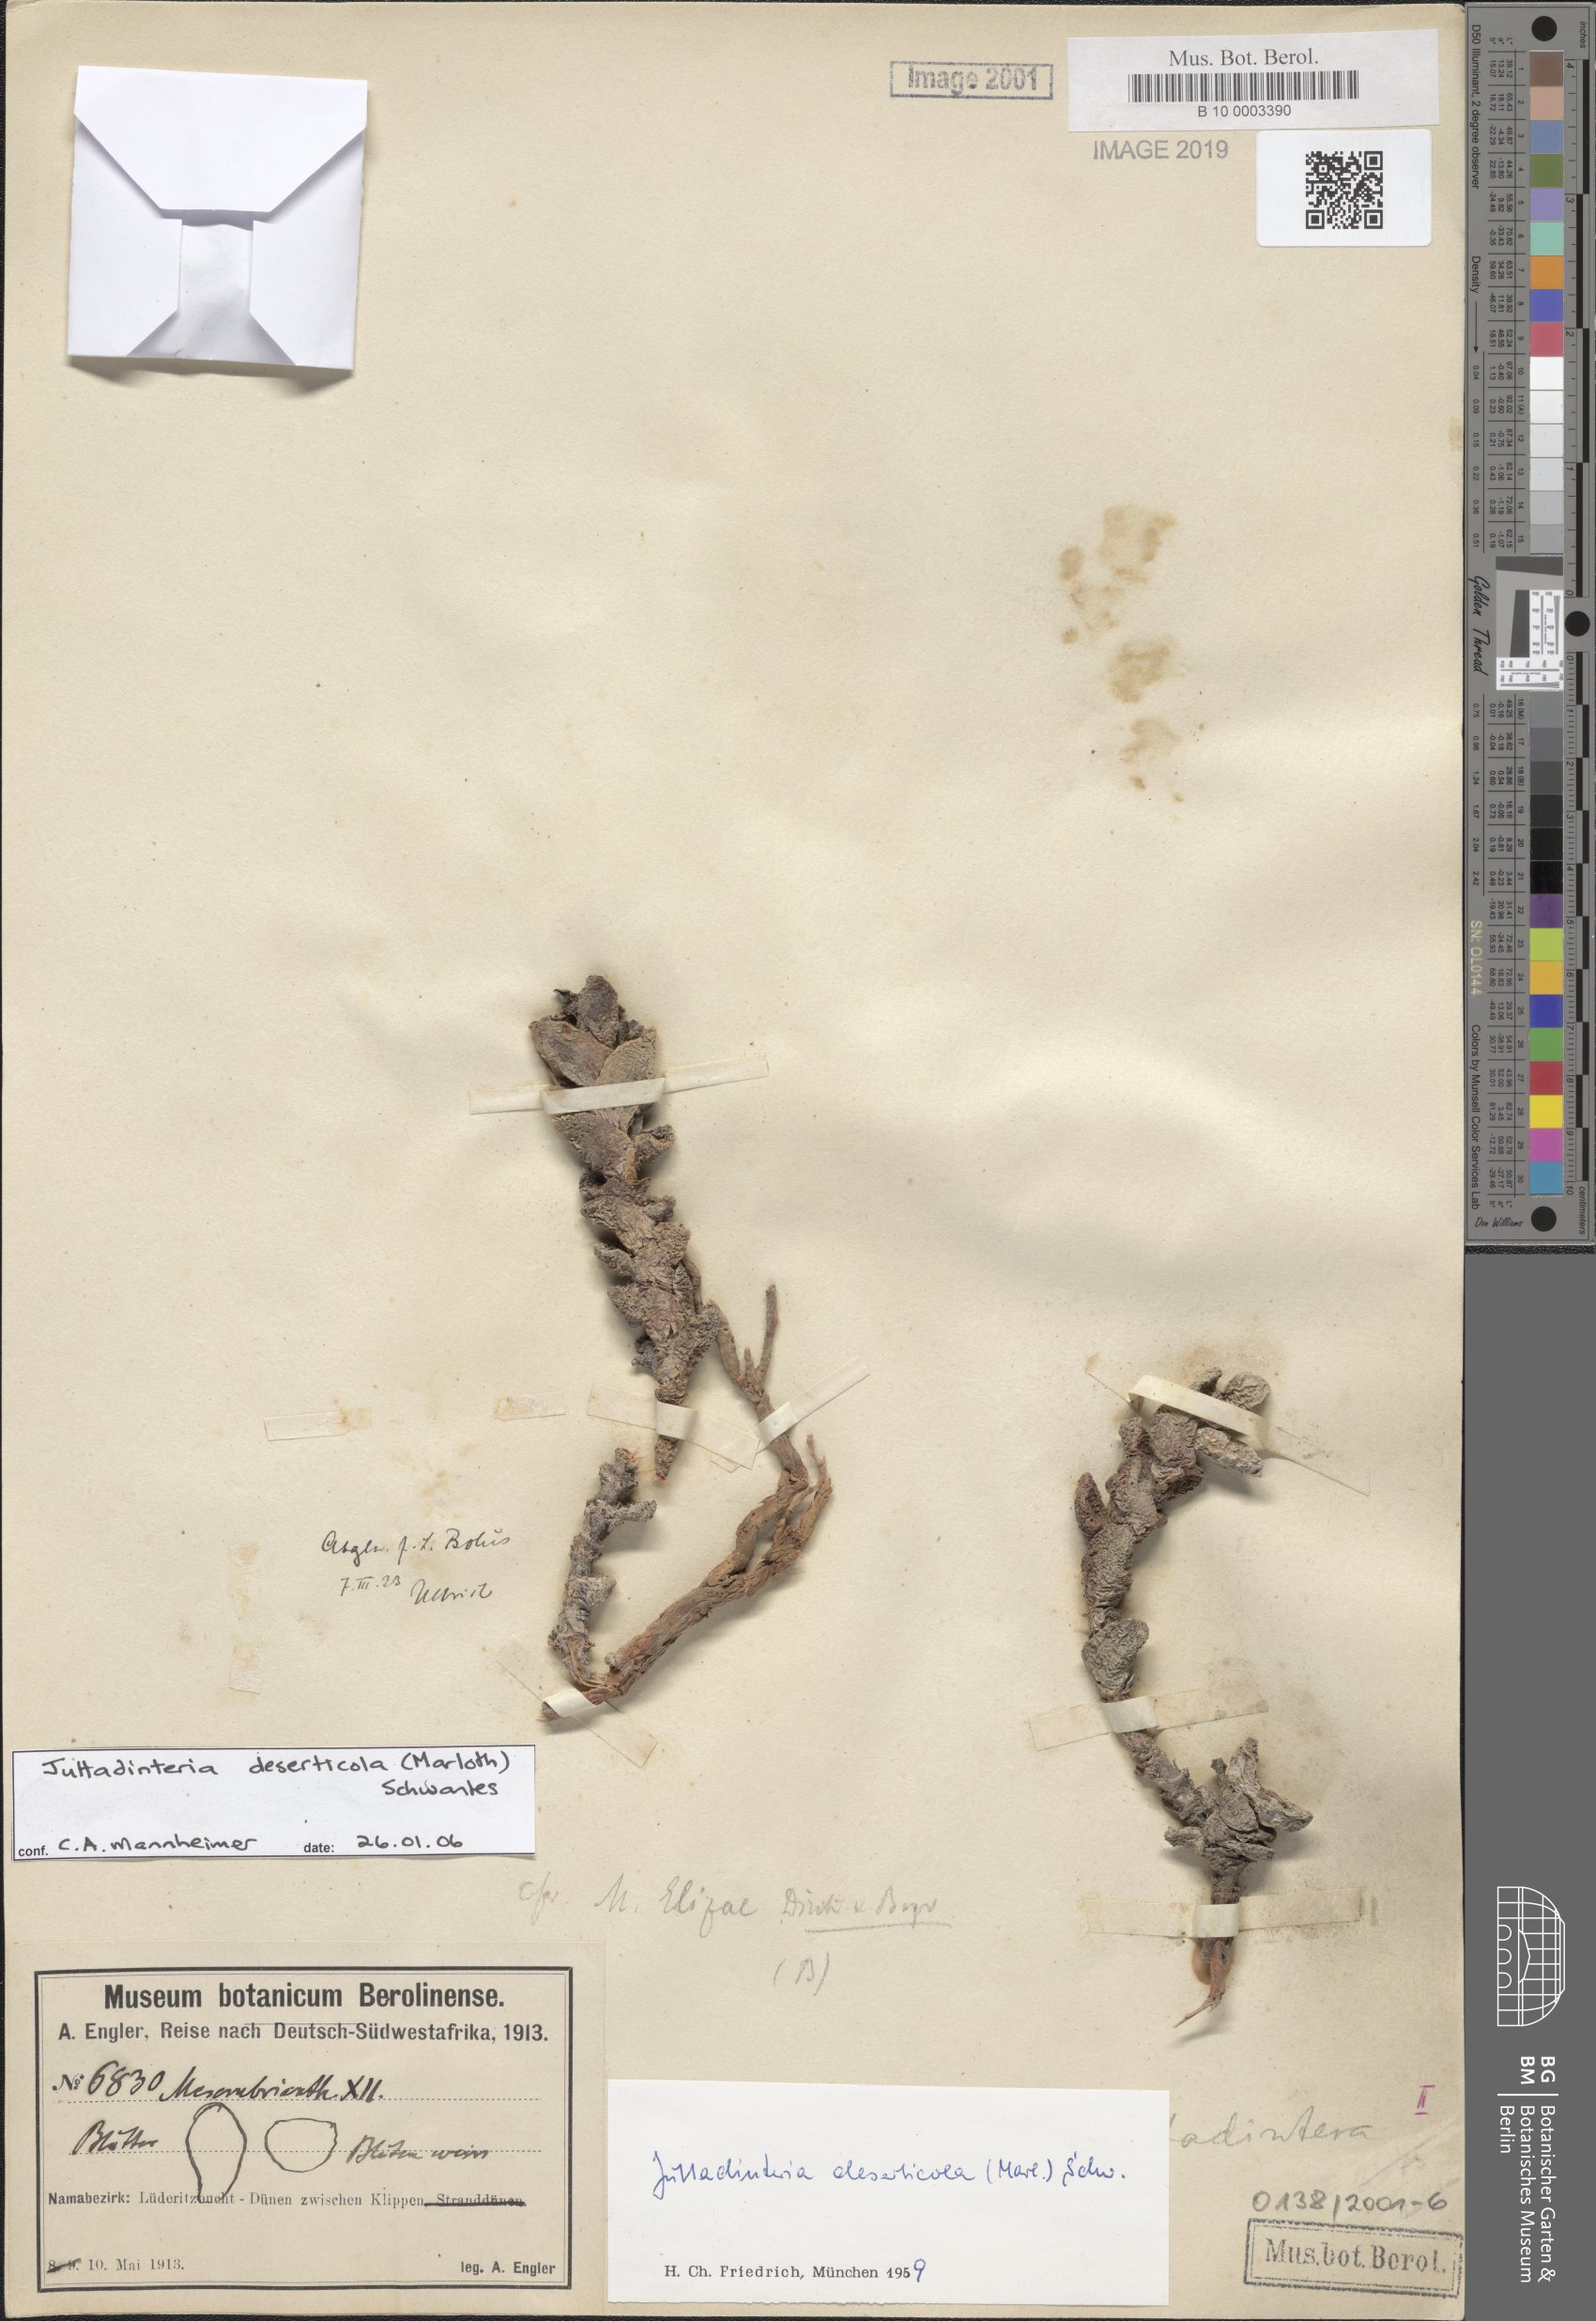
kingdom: Plantae
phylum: Tracheophyta
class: Magnoliopsida
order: Caryophyllales
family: Aizoaceae
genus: Juttadinteria
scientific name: Juttadinteria deserticola
